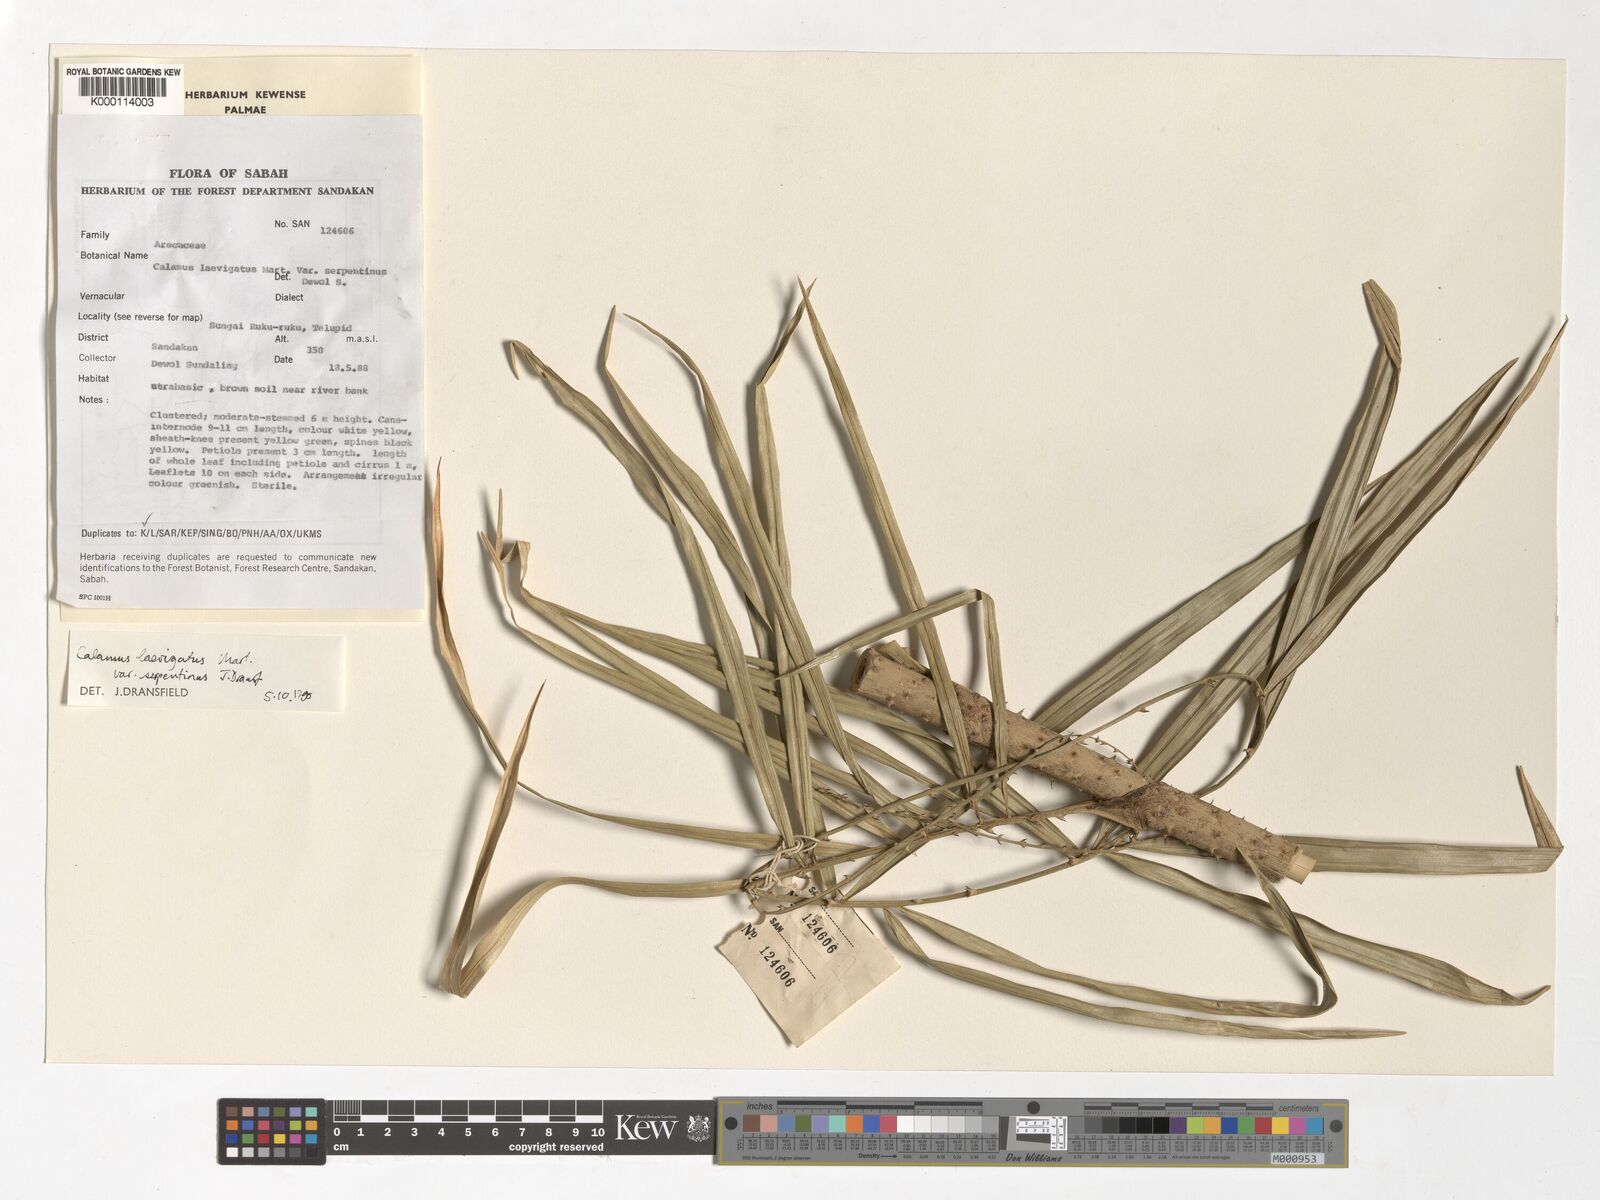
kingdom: Plantae
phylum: Tracheophyta
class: Liliopsida
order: Arecales
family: Arecaceae
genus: Calamus
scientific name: Calamus plicatus
